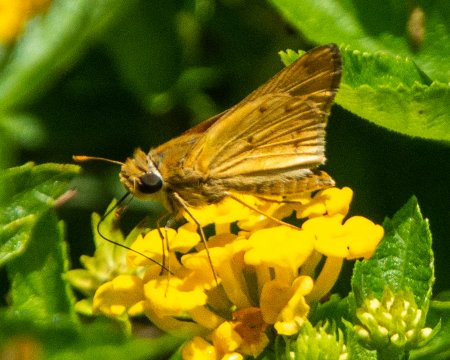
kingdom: Animalia
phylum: Arthropoda
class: Insecta
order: Lepidoptera
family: Hesperiidae
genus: Hylephila
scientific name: Hylephila phyleus
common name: Fiery Skipper
